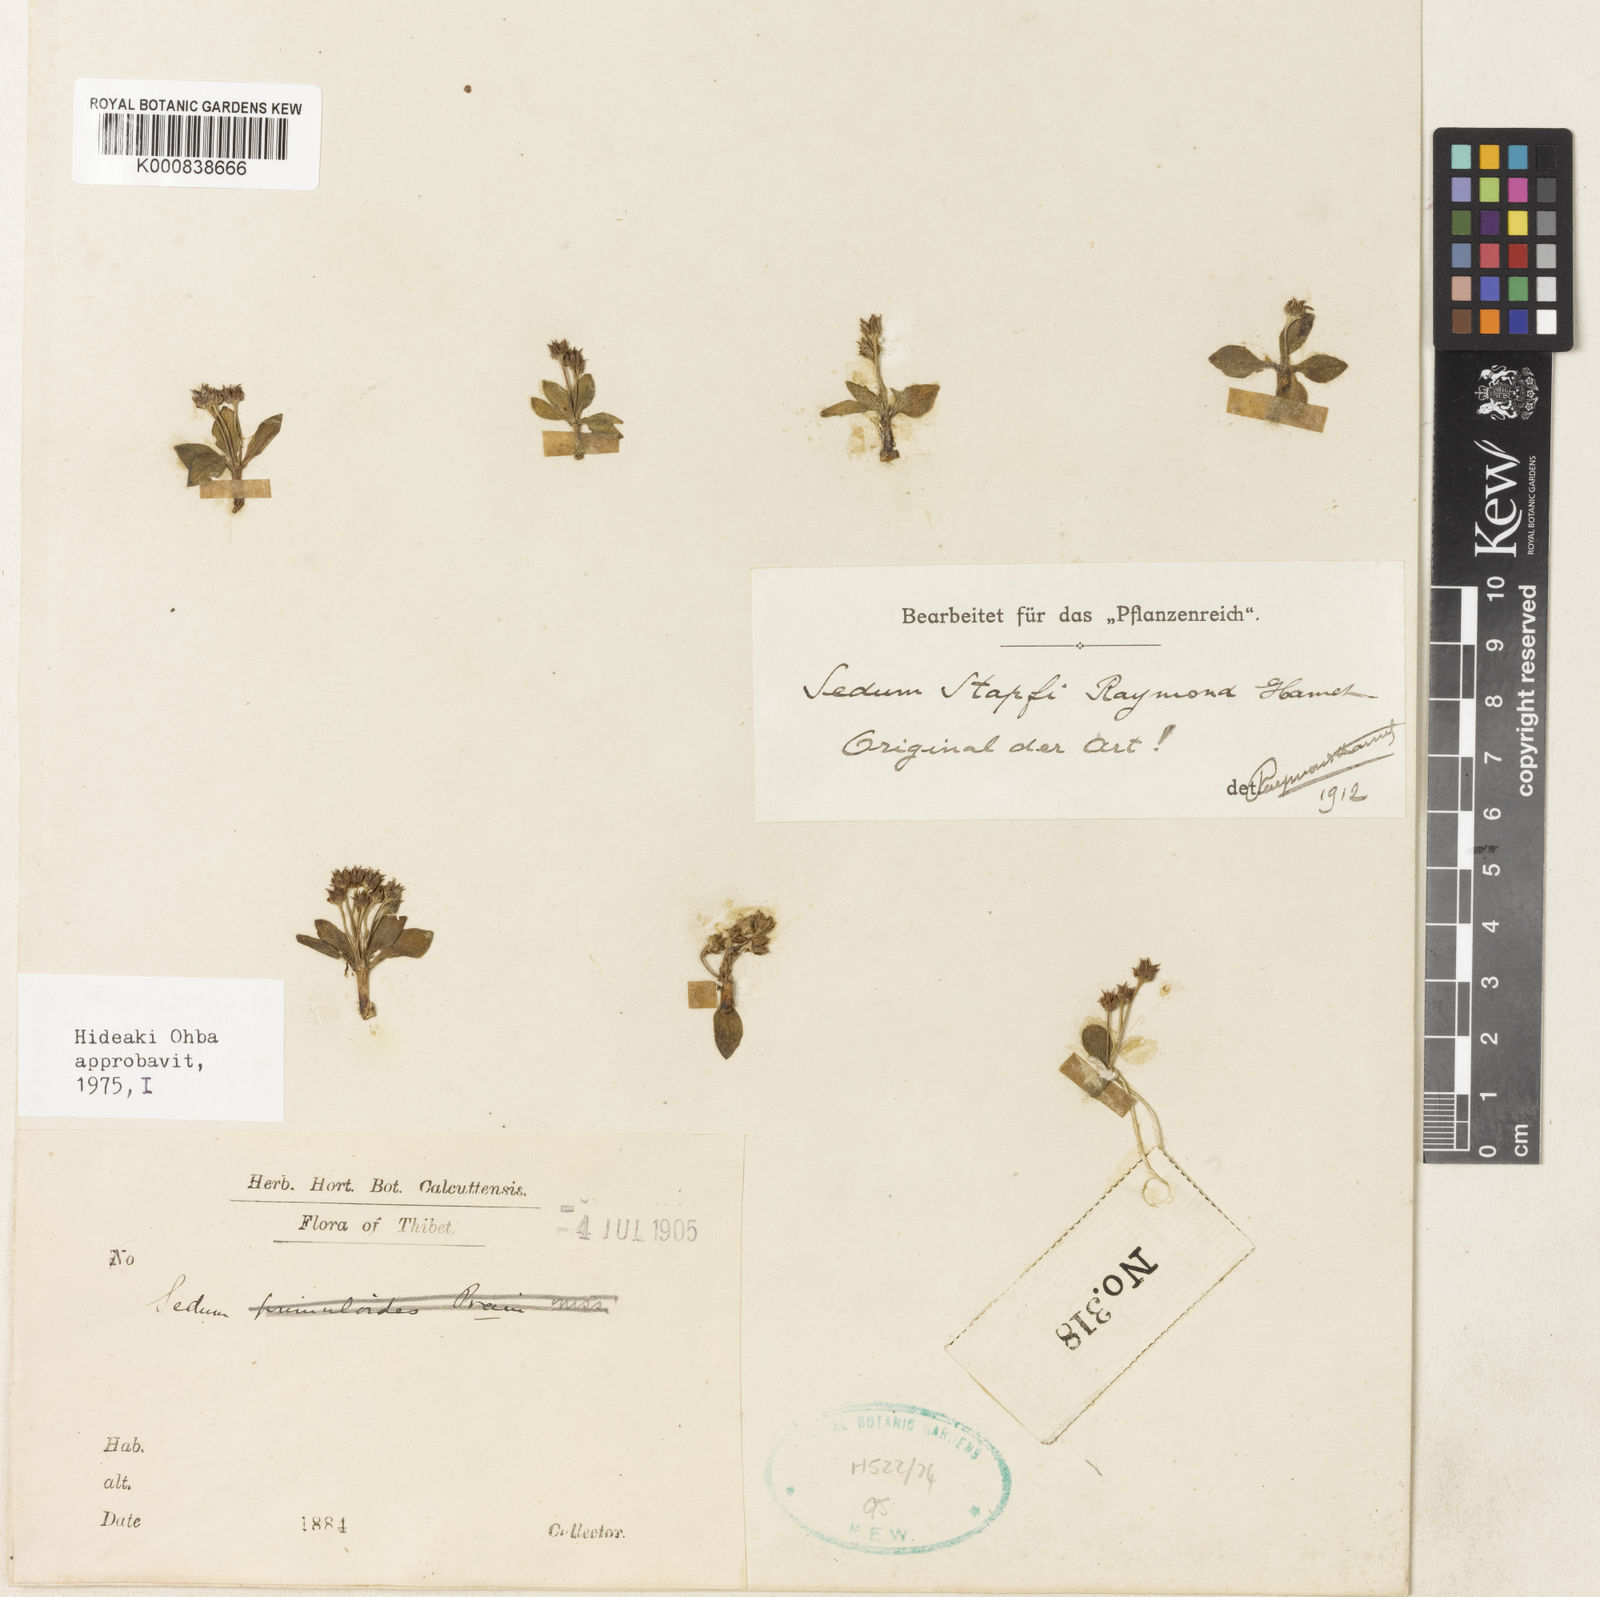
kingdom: Plantae
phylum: Tracheophyta
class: Magnoliopsida
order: Saxifragales
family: Crassulaceae
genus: Rhodiola
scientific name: Rhodiola stapfii
